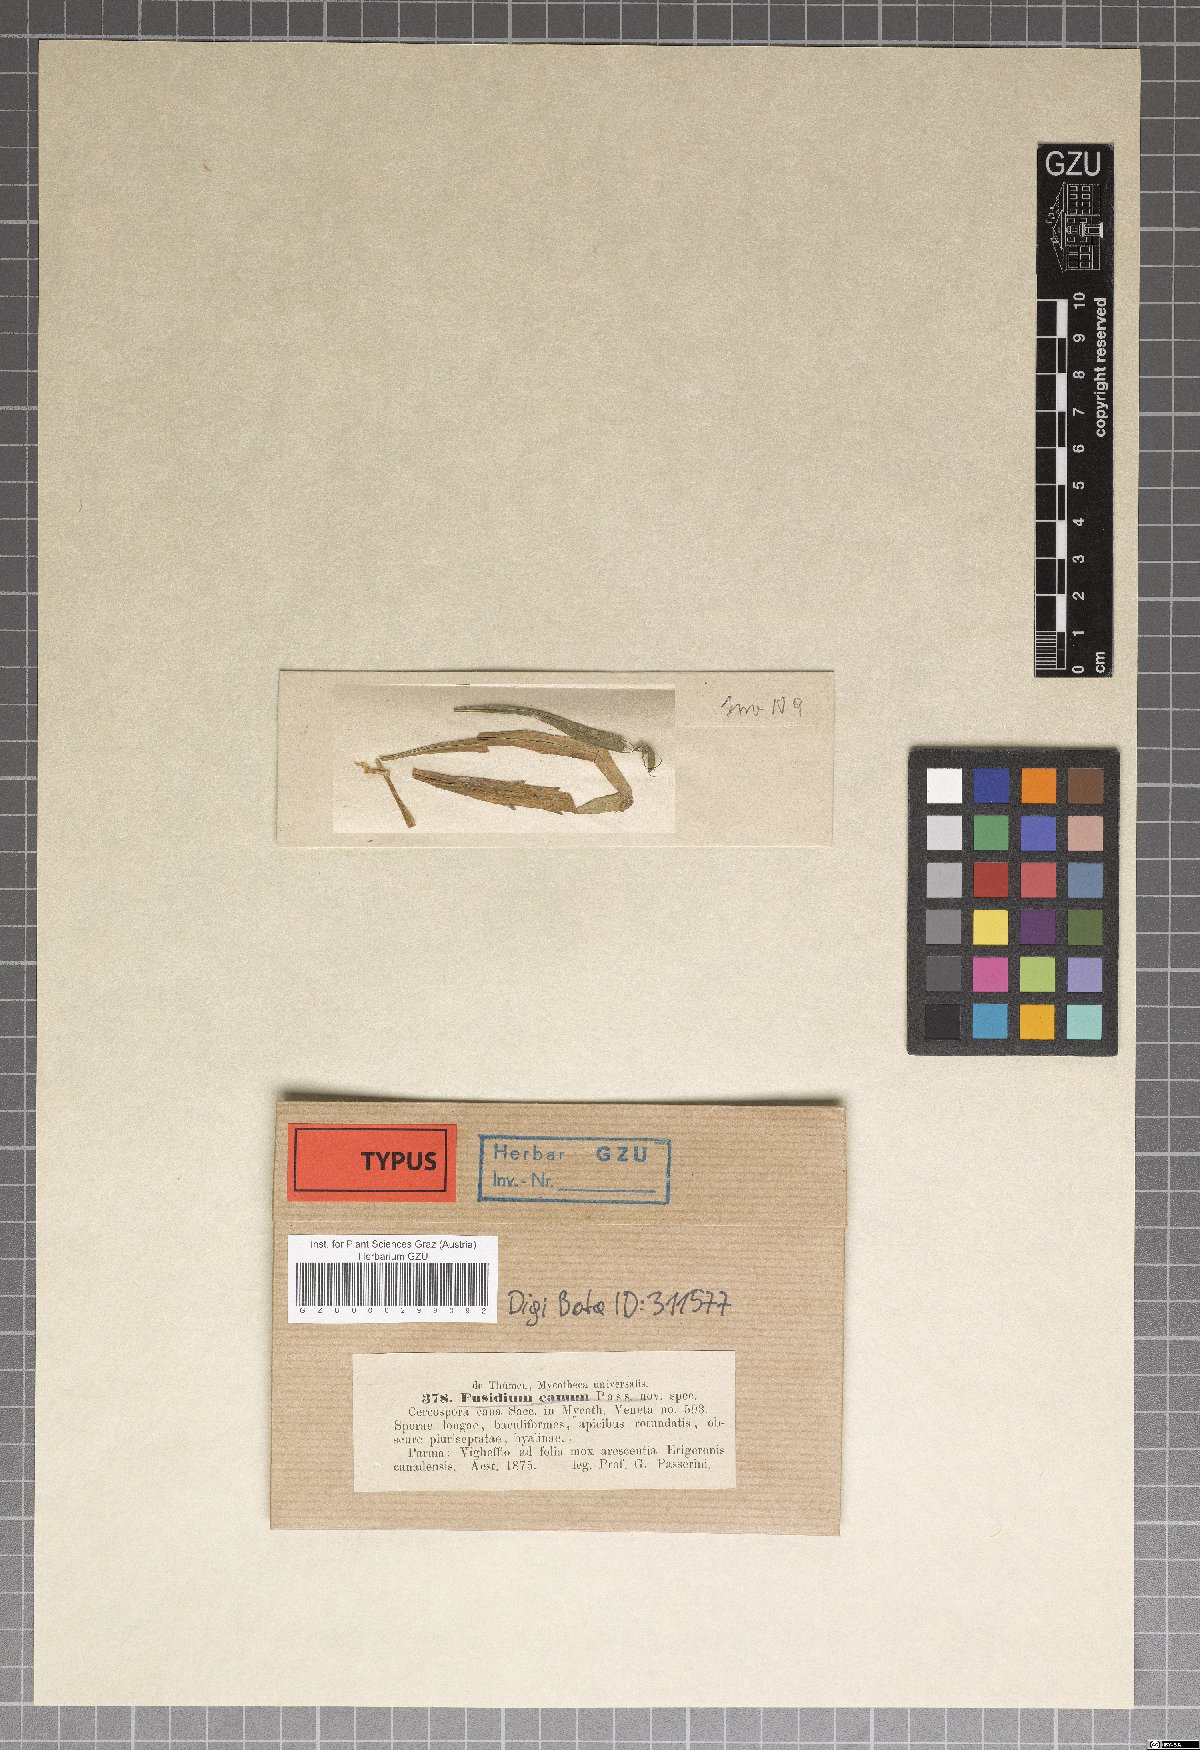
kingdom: Fungi
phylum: Ascomycota
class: Dothideomycetes
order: Mycosphaerellales
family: Mycosphaerellaceae
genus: Cercosporella
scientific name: Cercosporella virgaureae
